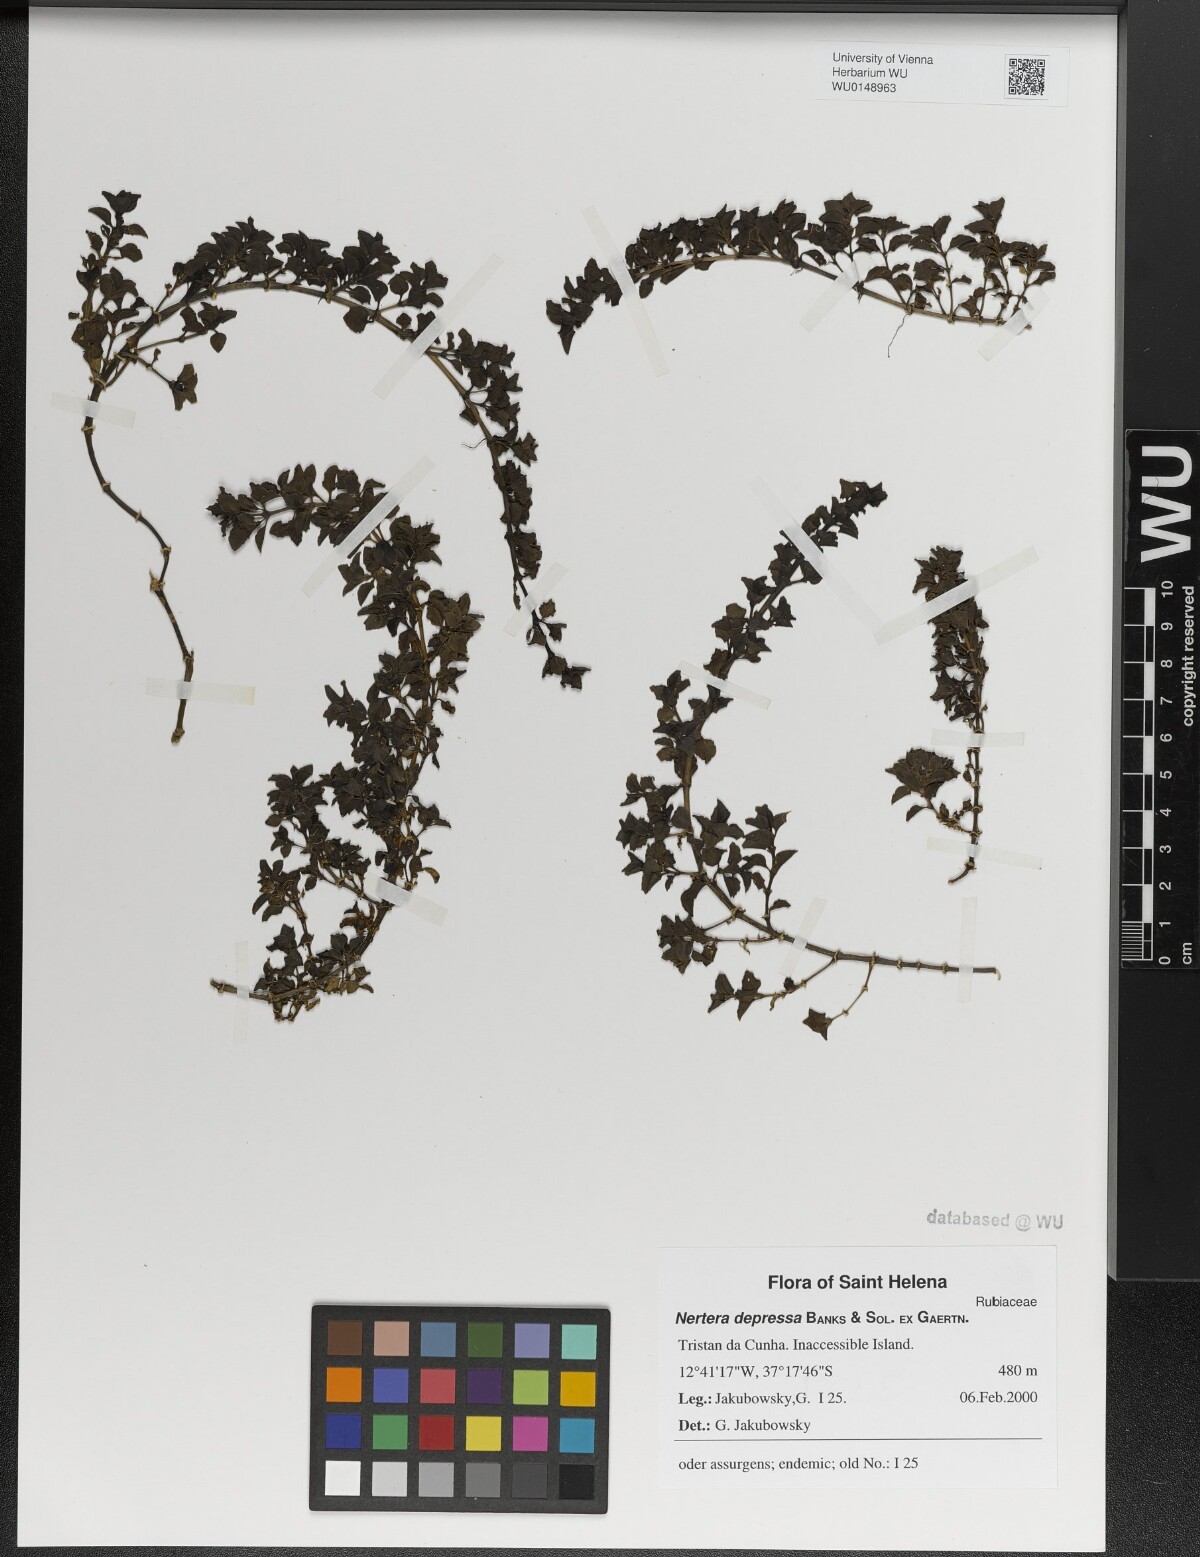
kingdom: Plantae
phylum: Tracheophyta
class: Magnoliopsida
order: Gentianales
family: Rubiaceae
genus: Nertera
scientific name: Nertera granadensis
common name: Beadplant
